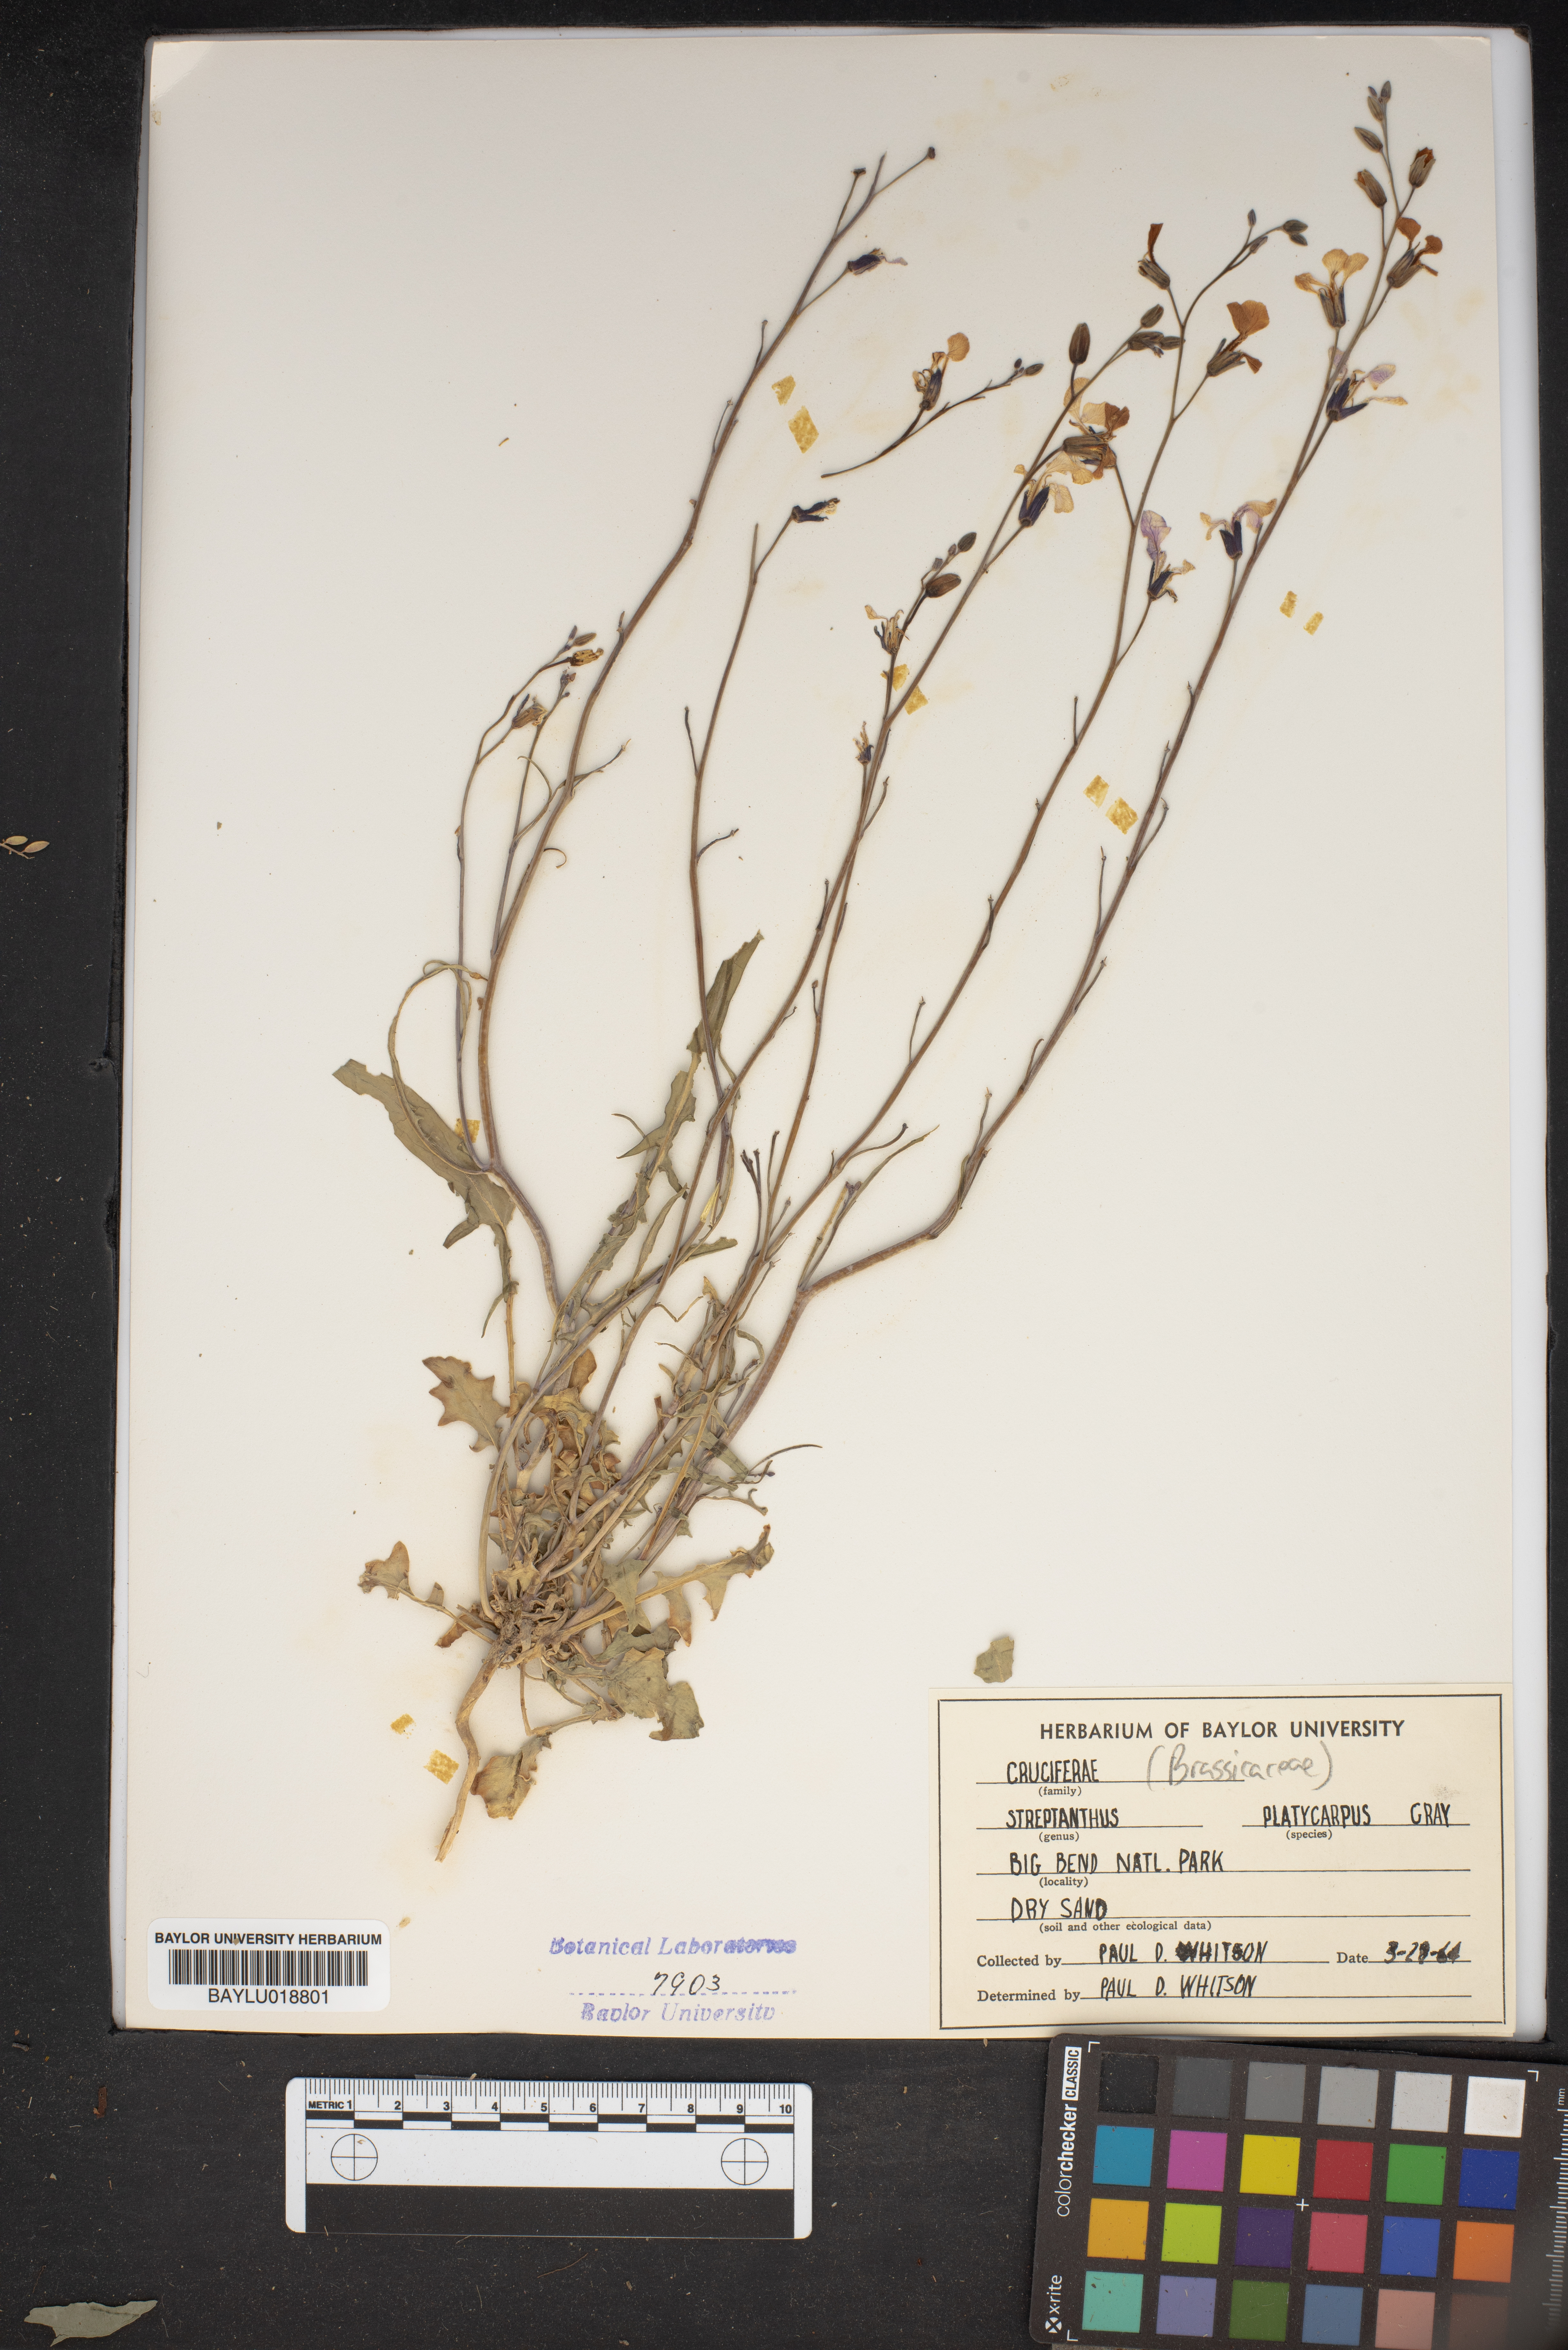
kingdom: Plantae
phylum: Tracheophyta
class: Magnoliopsida
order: Brassicales
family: Brassicaceae
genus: Streptanthus
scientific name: Streptanthus platycarpus
